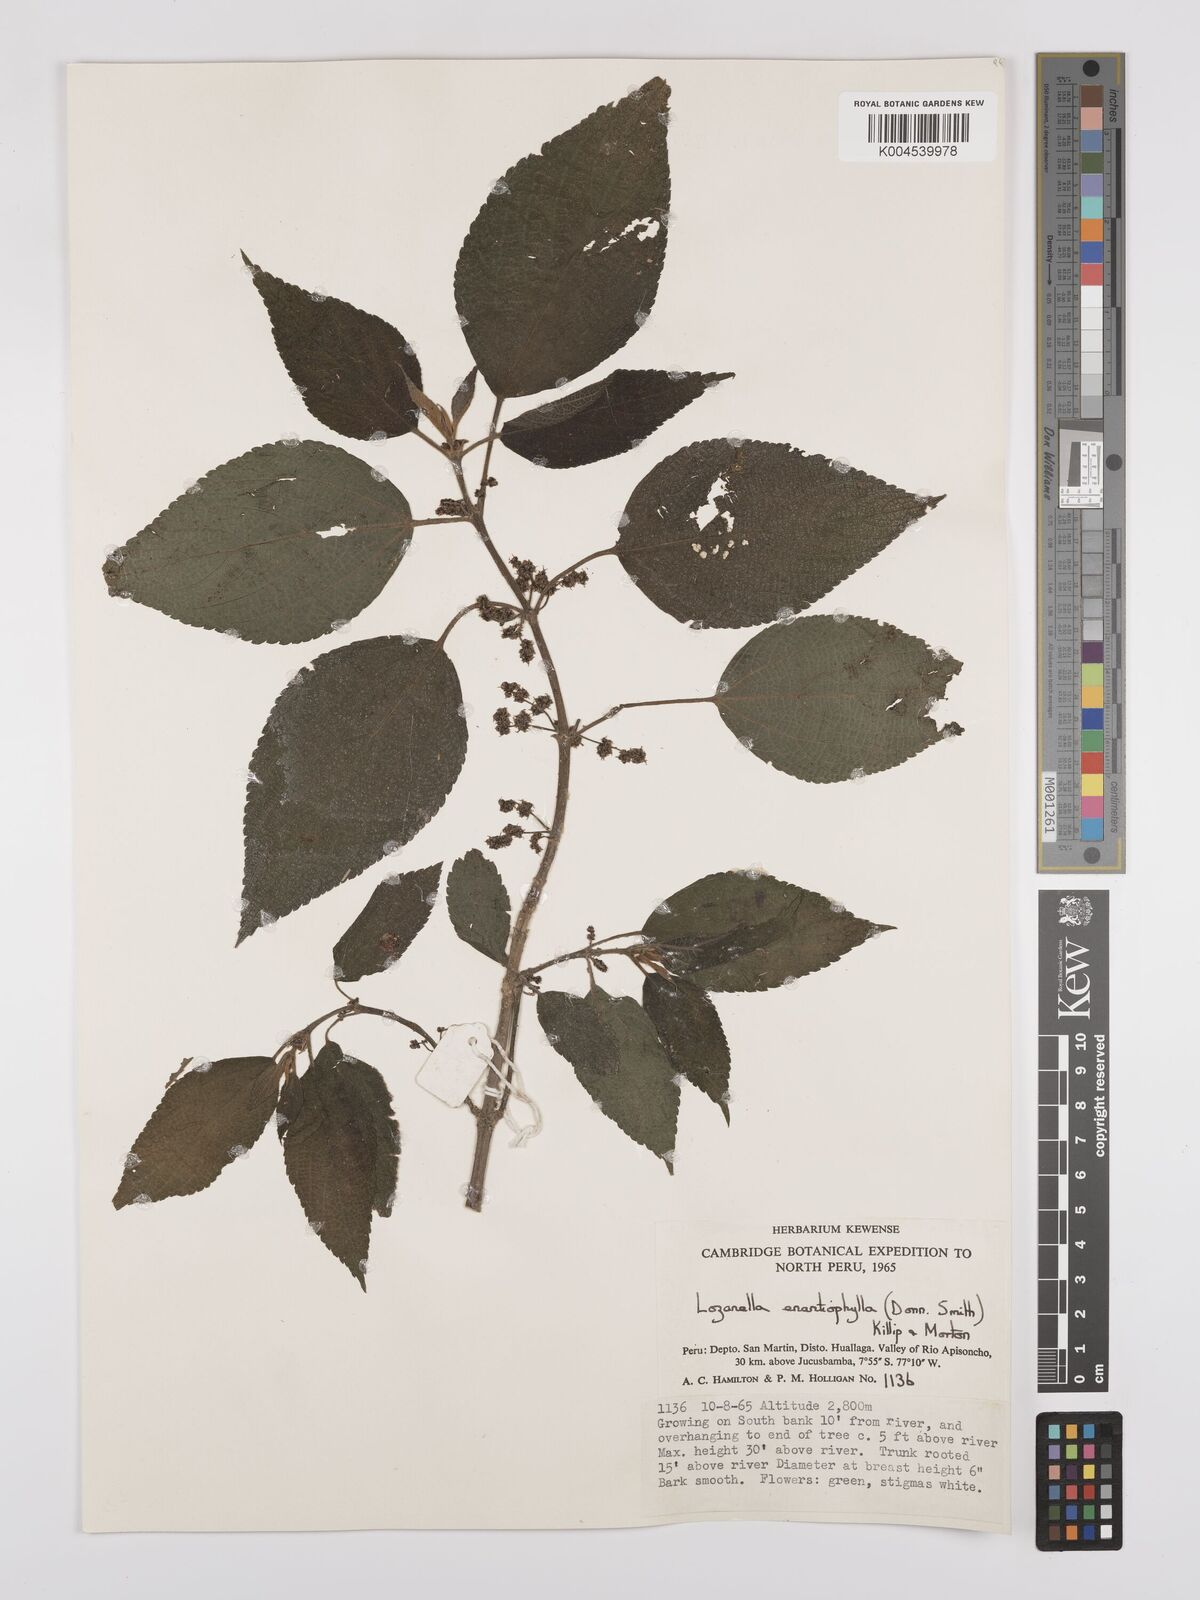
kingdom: Plantae
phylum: Tracheophyta
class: Magnoliopsida
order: Rosales
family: Cannabaceae
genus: Lozanella
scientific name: Lozanella enantiophylla
